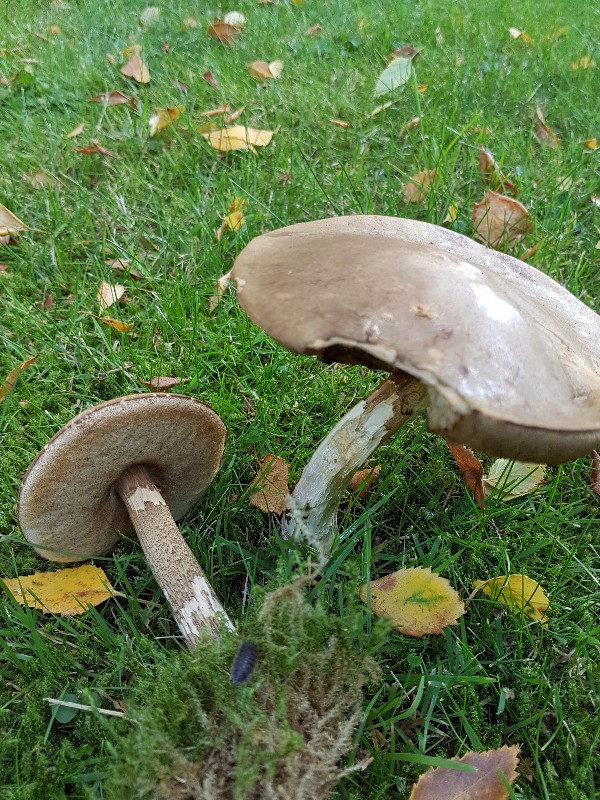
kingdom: Fungi
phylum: Basidiomycota
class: Agaricomycetes
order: Boletales
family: Boletaceae
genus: Leccinum
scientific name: Leccinum scabrum
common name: brun skælrørhat
